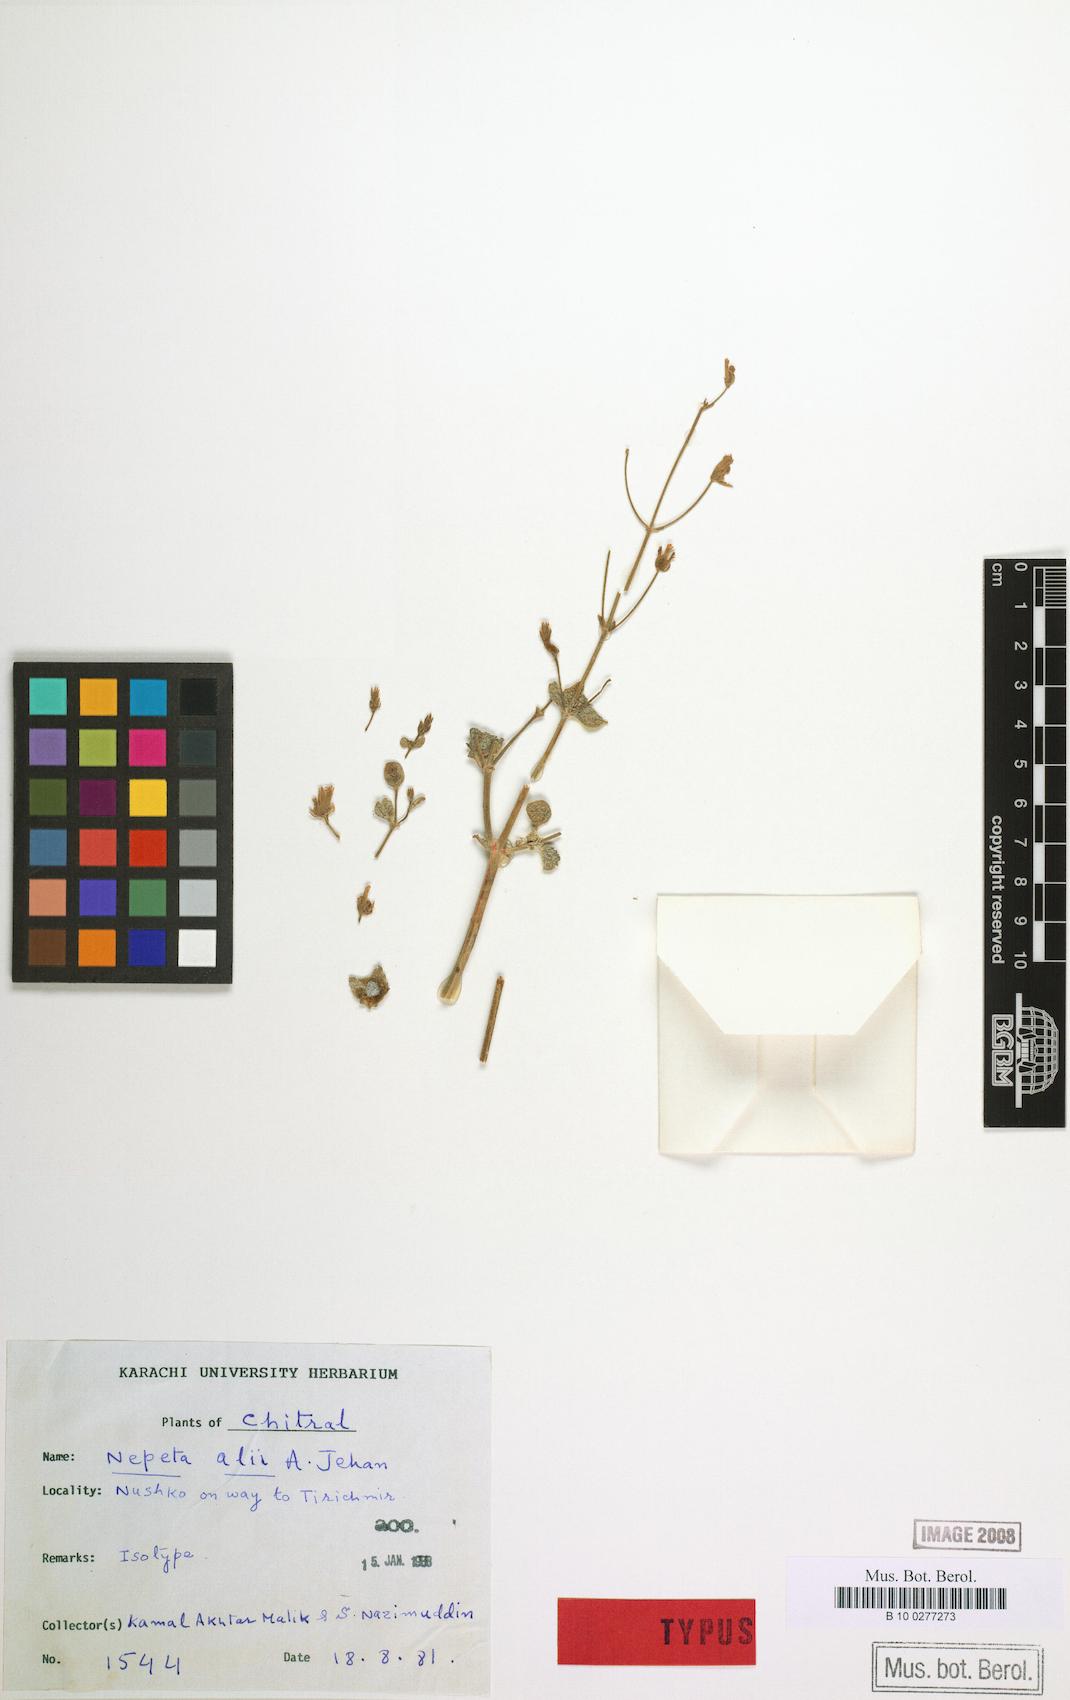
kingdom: Plantae
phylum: Tracheophyta
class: Magnoliopsida
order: Lamiales
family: Lamiaceae
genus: Nepeta
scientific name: Nepeta floccosa
